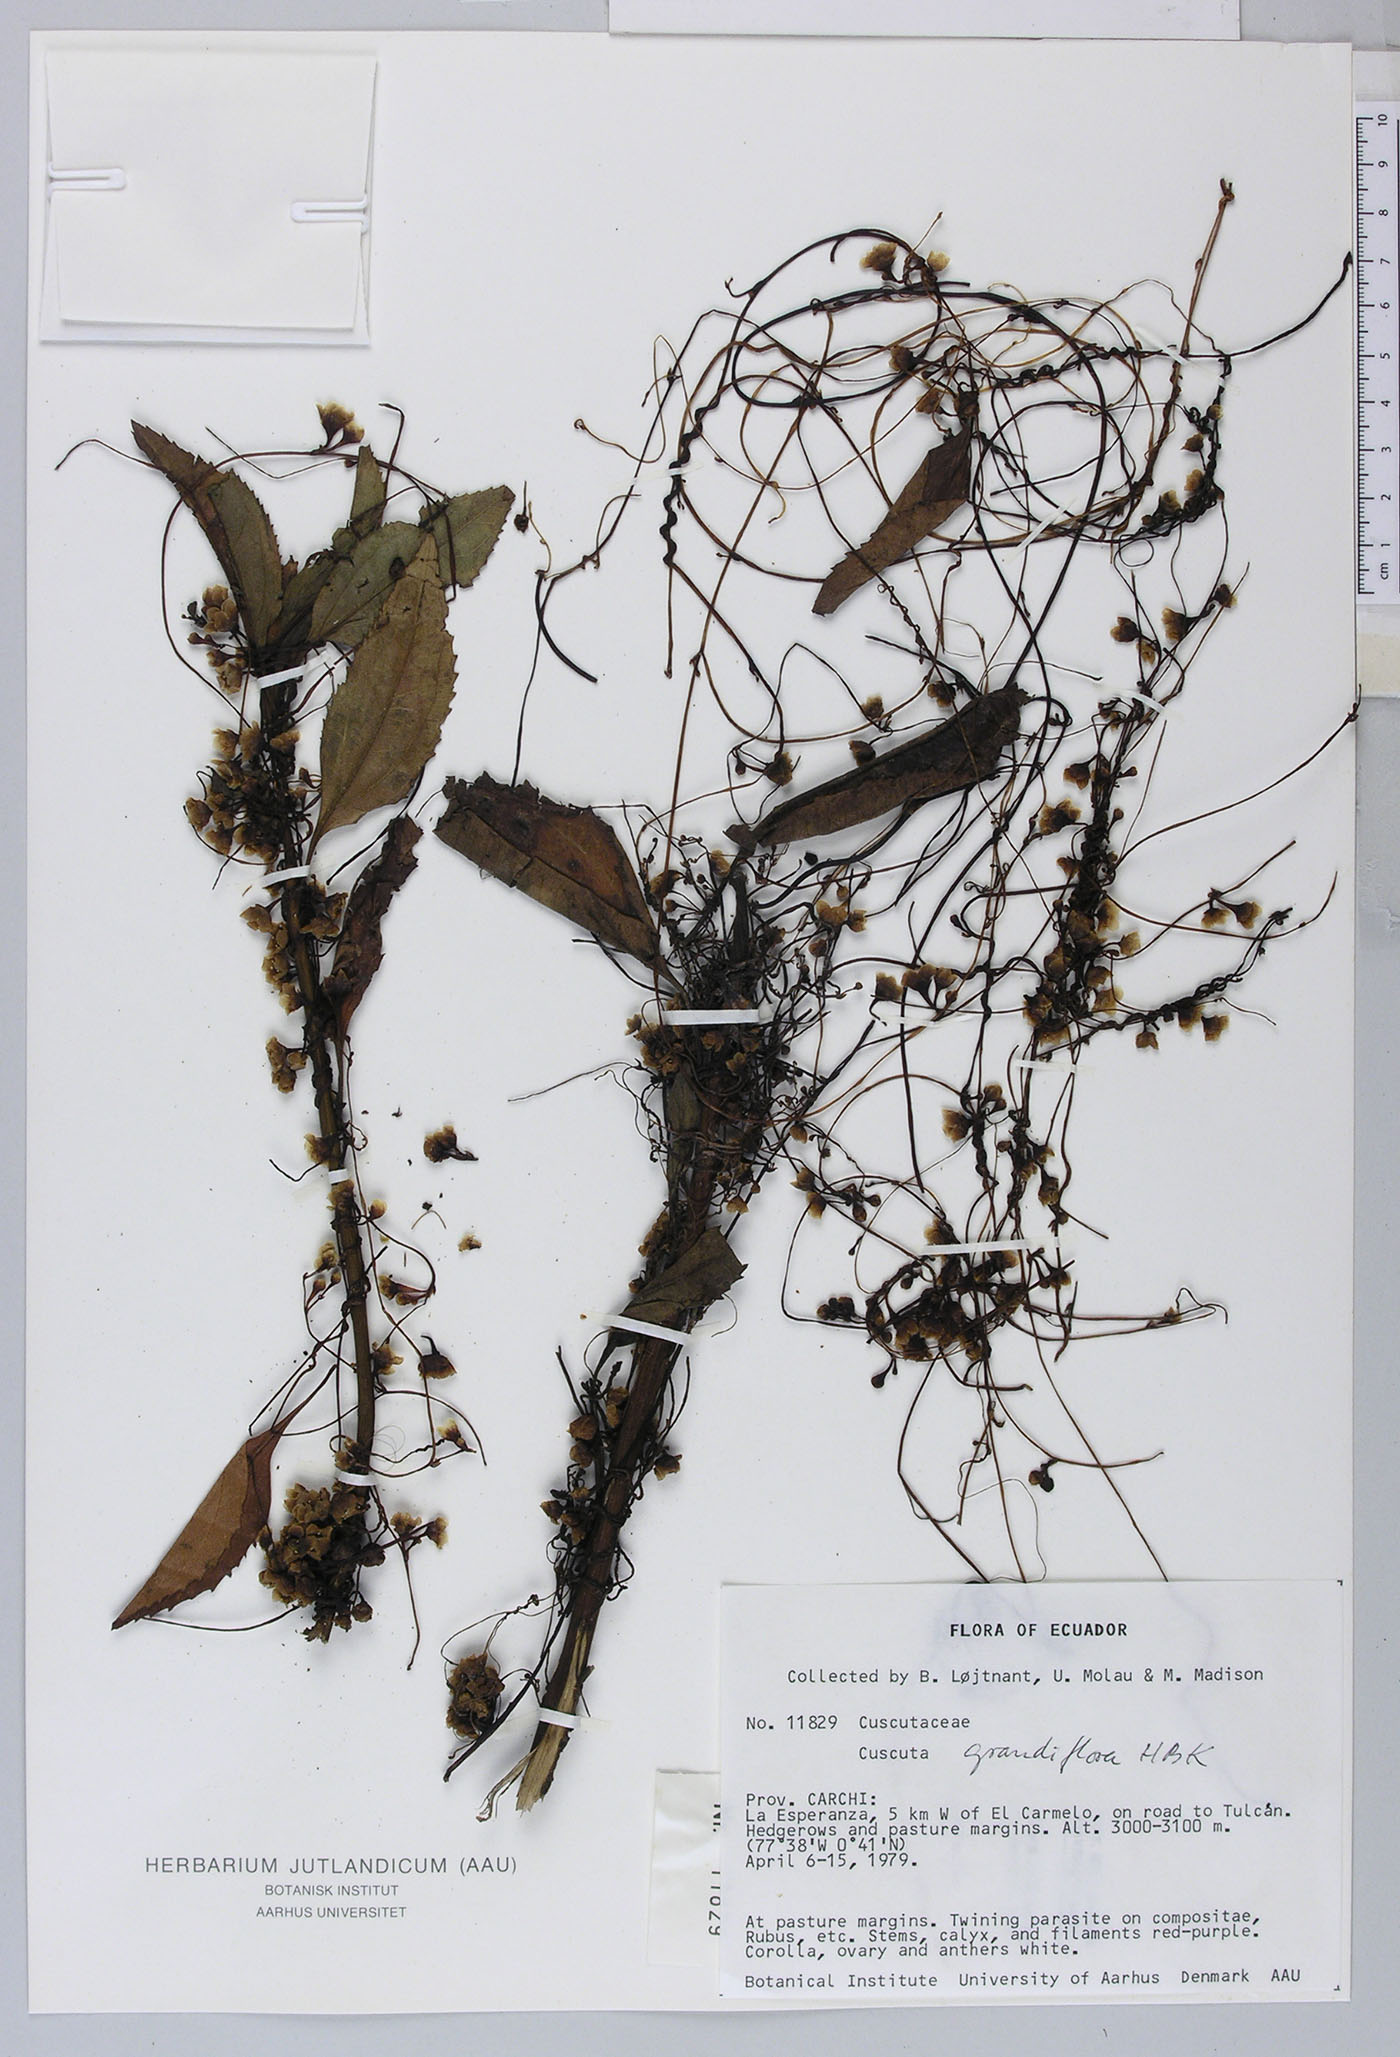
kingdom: Plantae
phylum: Tracheophyta
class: Magnoliopsida
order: Solanales
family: Convolvulaceae
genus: Cuscuta
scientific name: Cuscuta grandiflora
